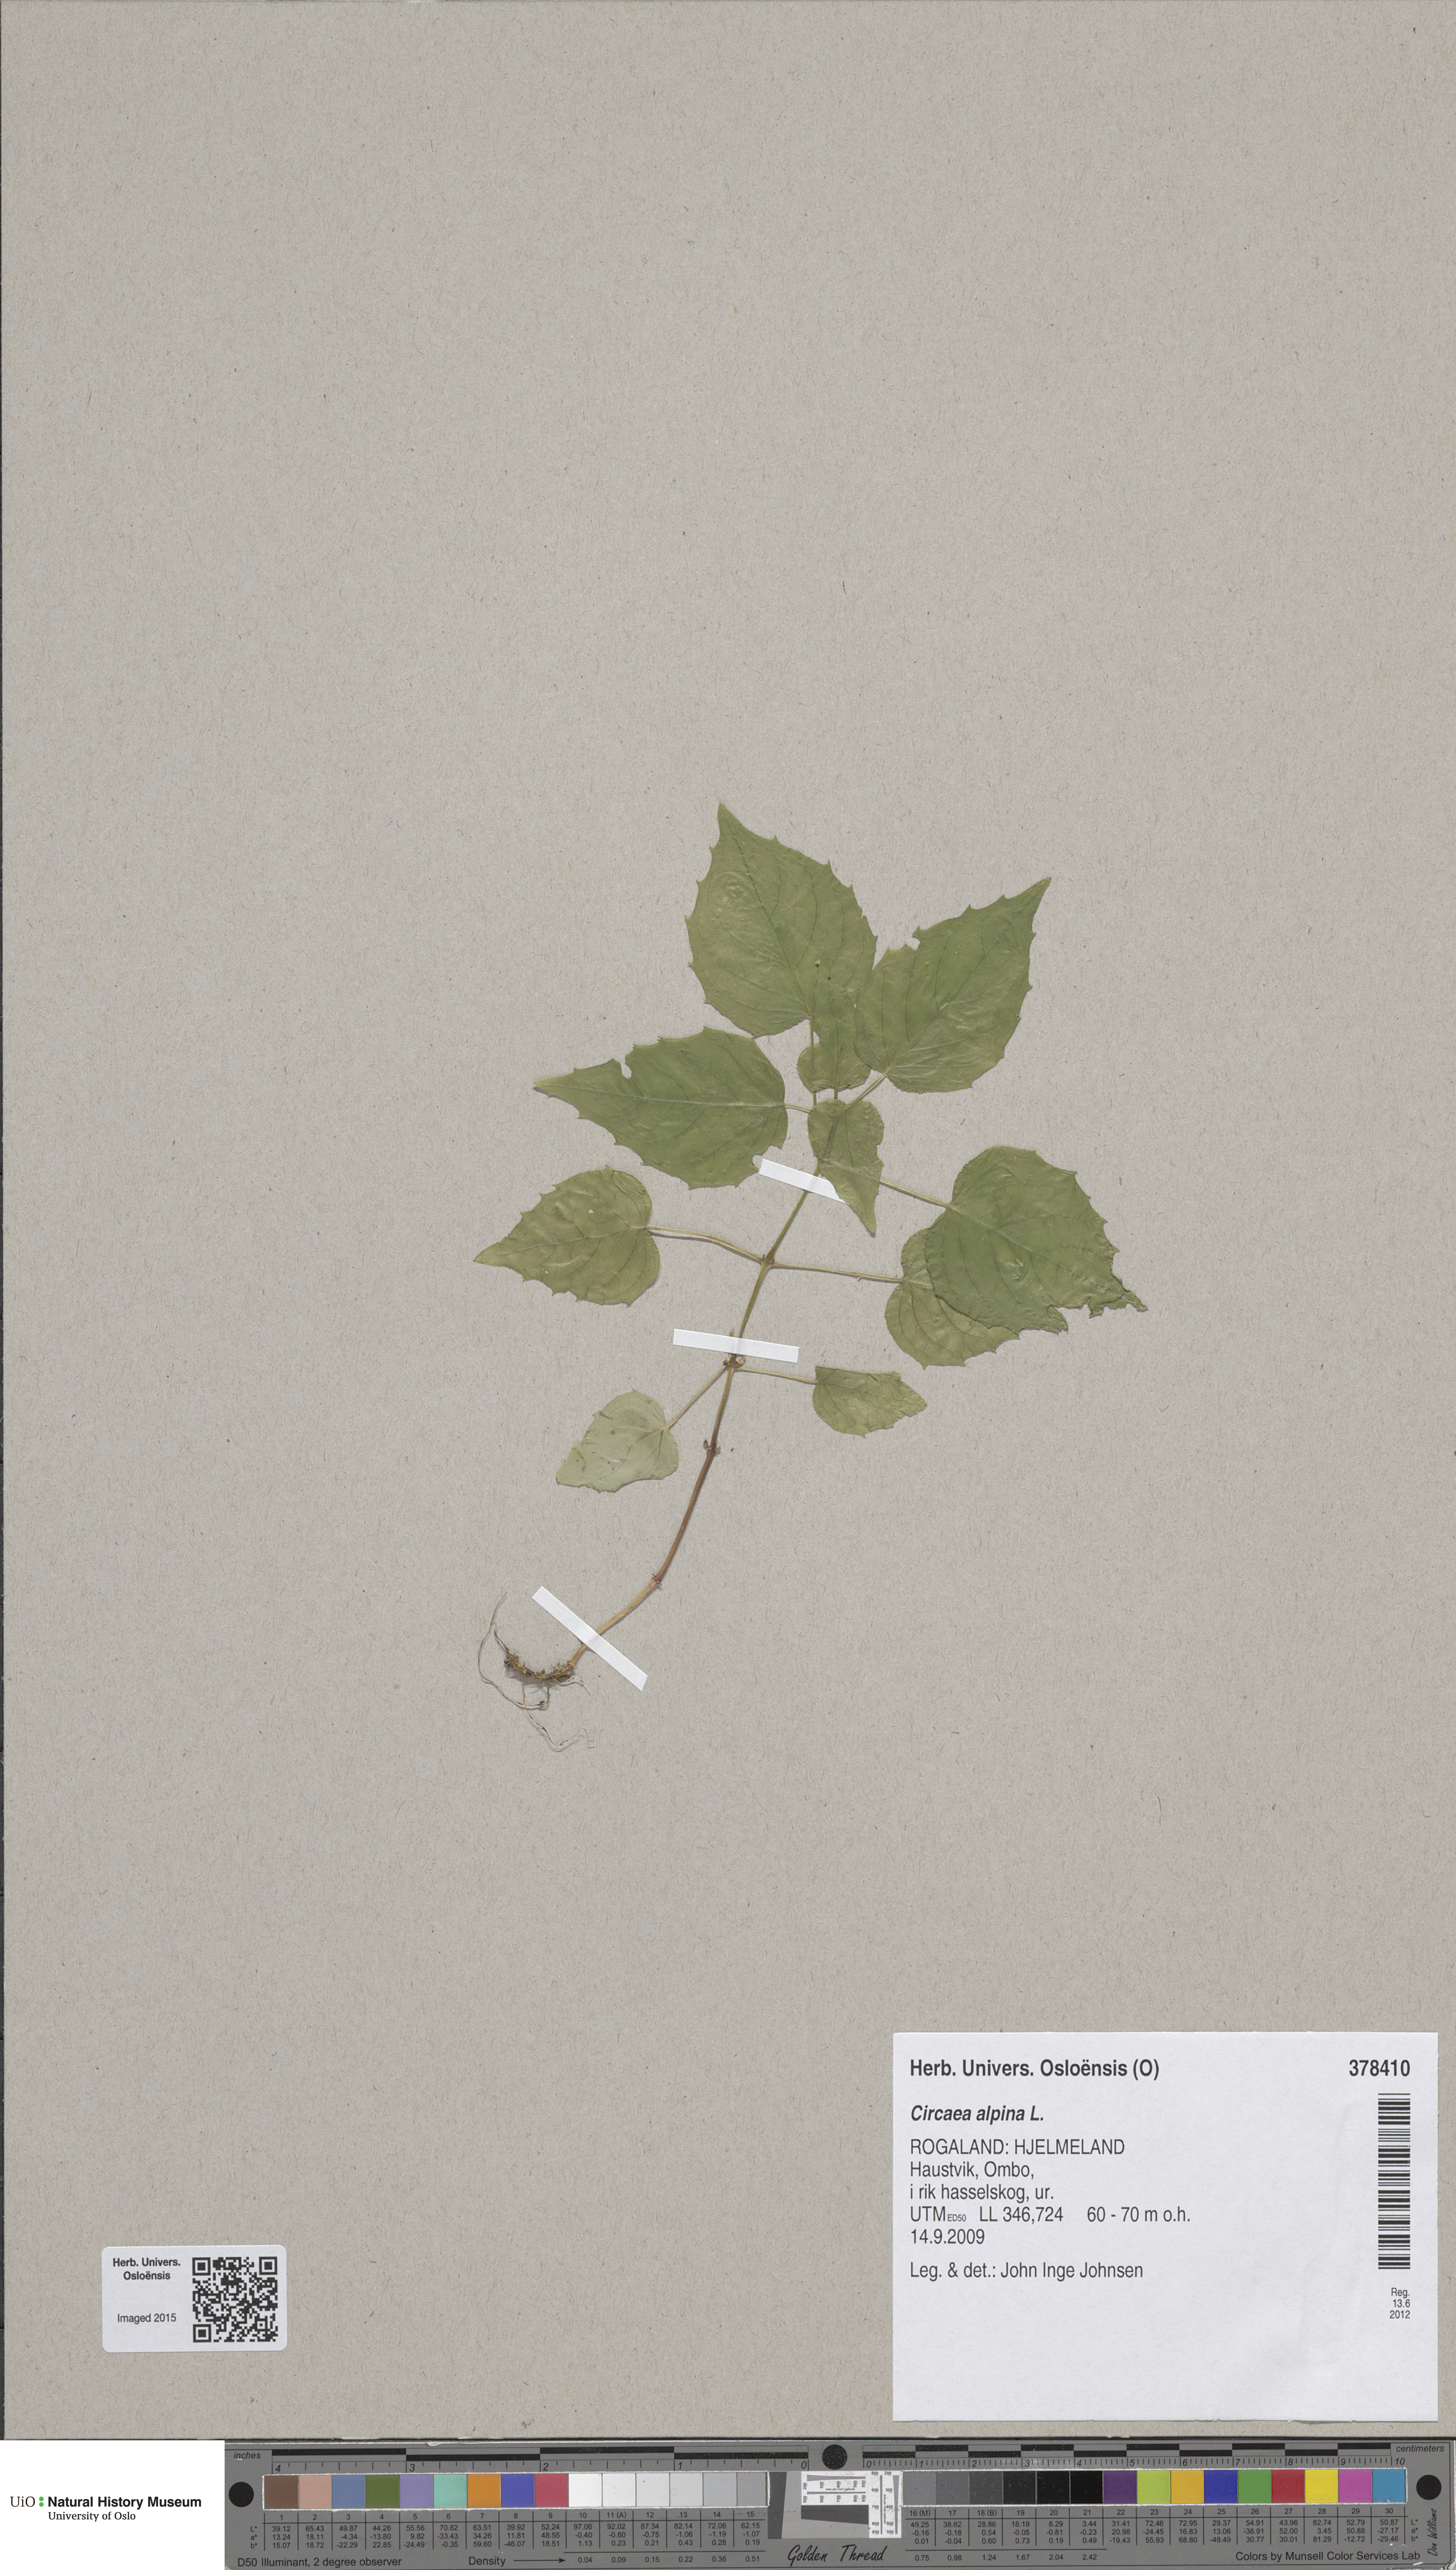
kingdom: Plantae
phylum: Tracheophyta
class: Magnoliopsida
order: Myrtales
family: Onagraceae
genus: Circaea
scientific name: Circaea alpina
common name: Alpine enchanter's-nightshade
